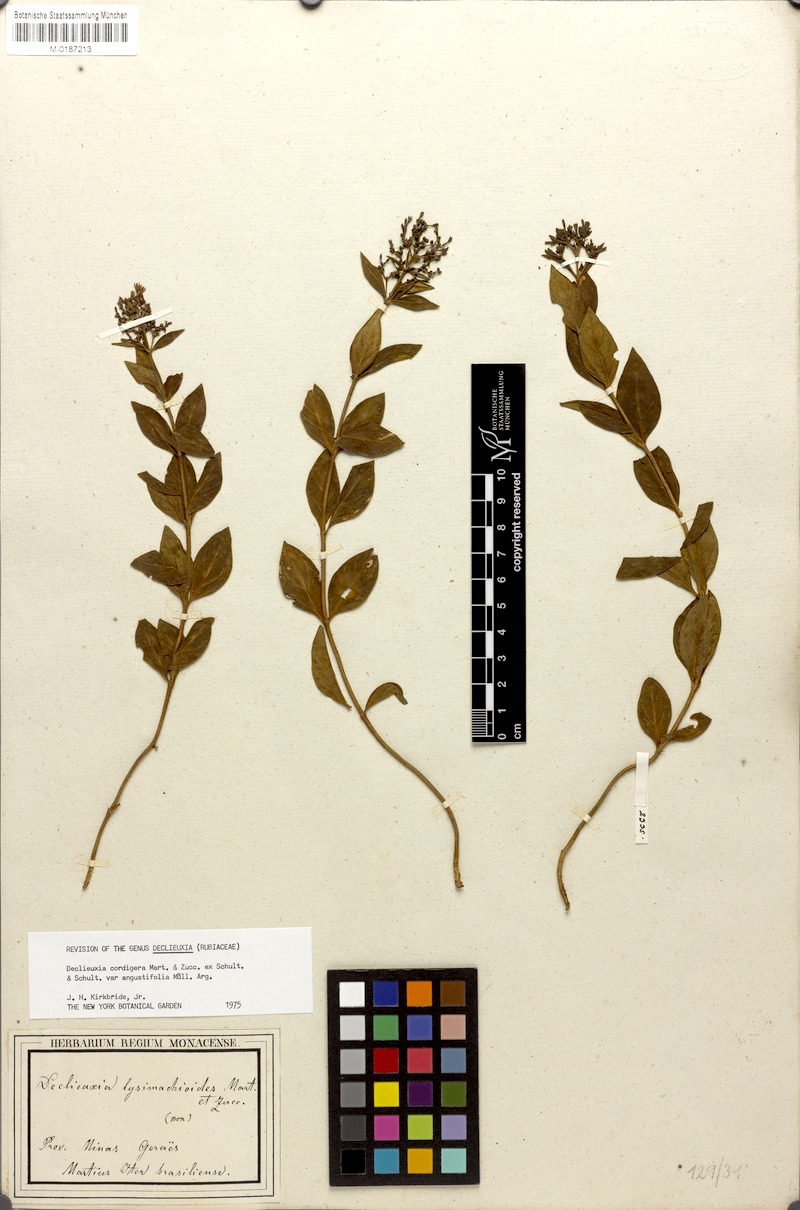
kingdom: Plantae
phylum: Tracheophyta
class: Magnoliopsida
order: Gentianales
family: Rubiaceae
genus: Declieuxia
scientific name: Declieuxia cordigera
